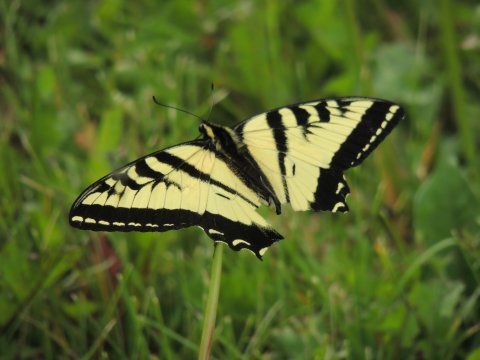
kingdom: Animalia
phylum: Arthropoda
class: Insecta
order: Lepidoptera
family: Papilionidae
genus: Pterourus
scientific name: Pterourus rutulus
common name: Western Tiger Swallowtail
